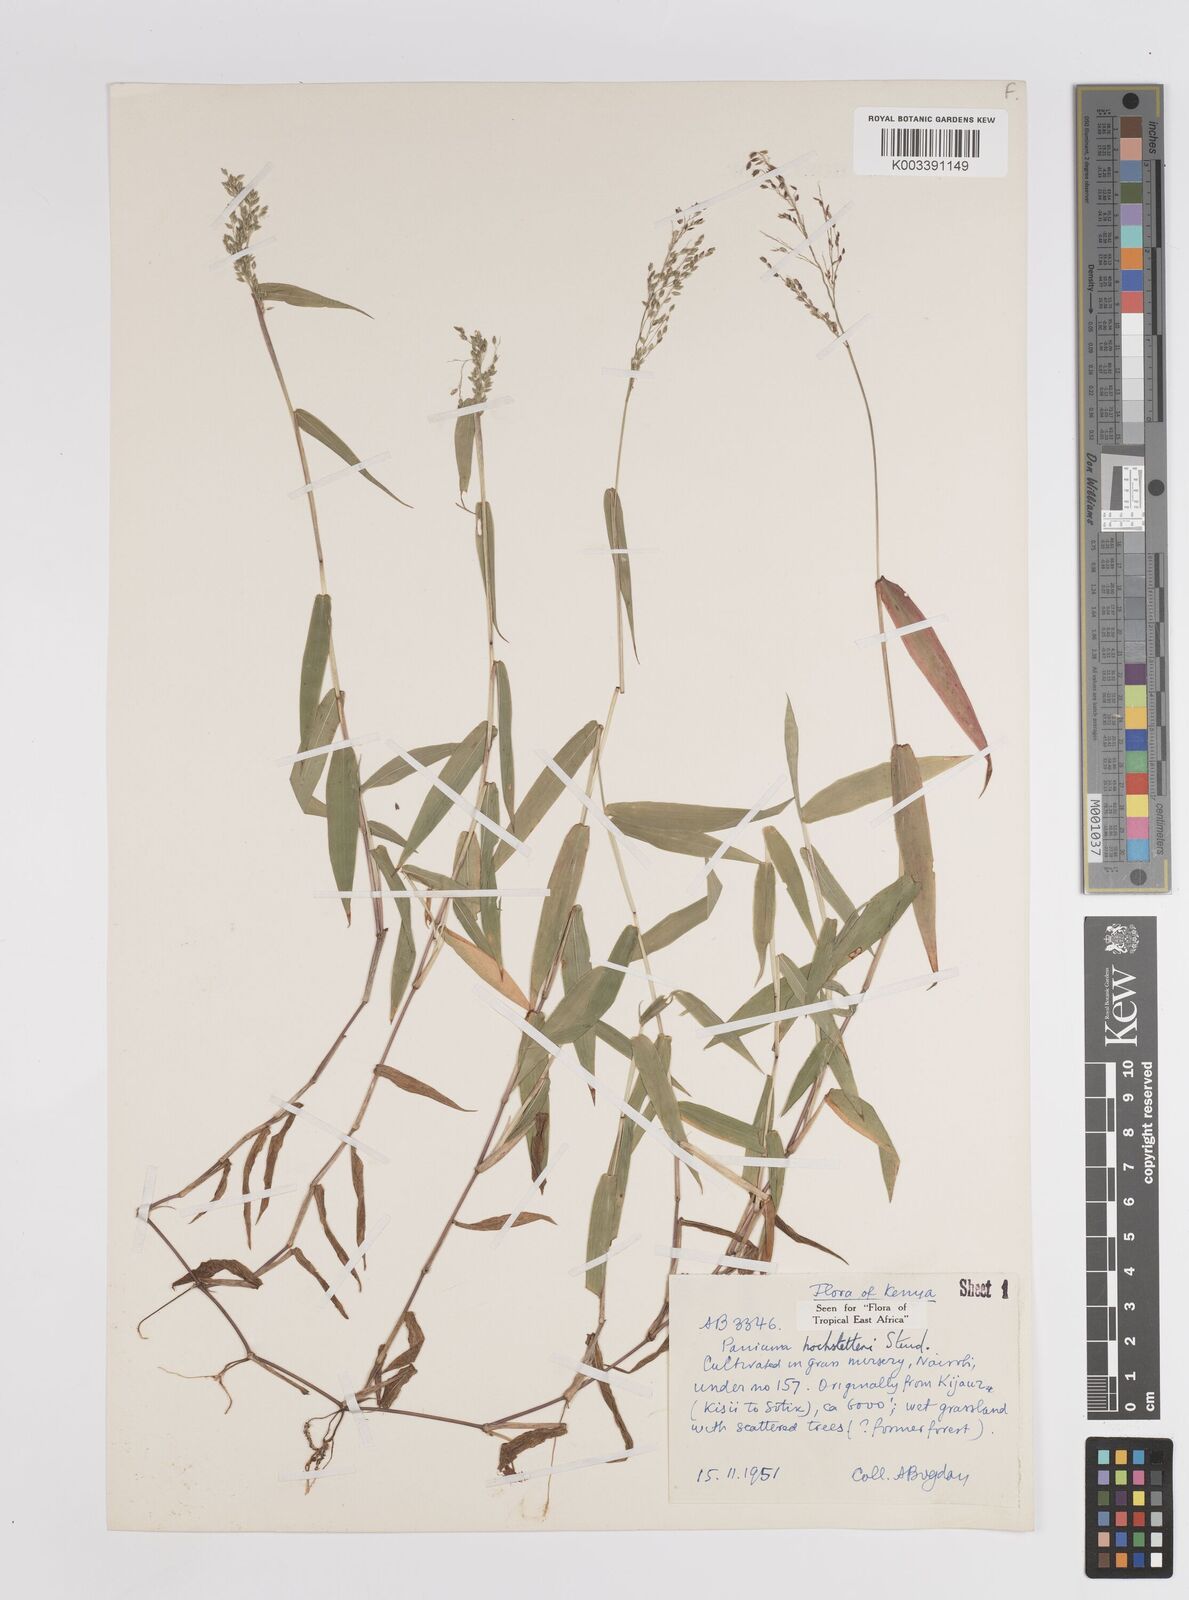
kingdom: Plantae
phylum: Tracheophyta
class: Liliopsida
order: Poales
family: Poaceae
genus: Panicum
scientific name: Panicum hochstetteri
